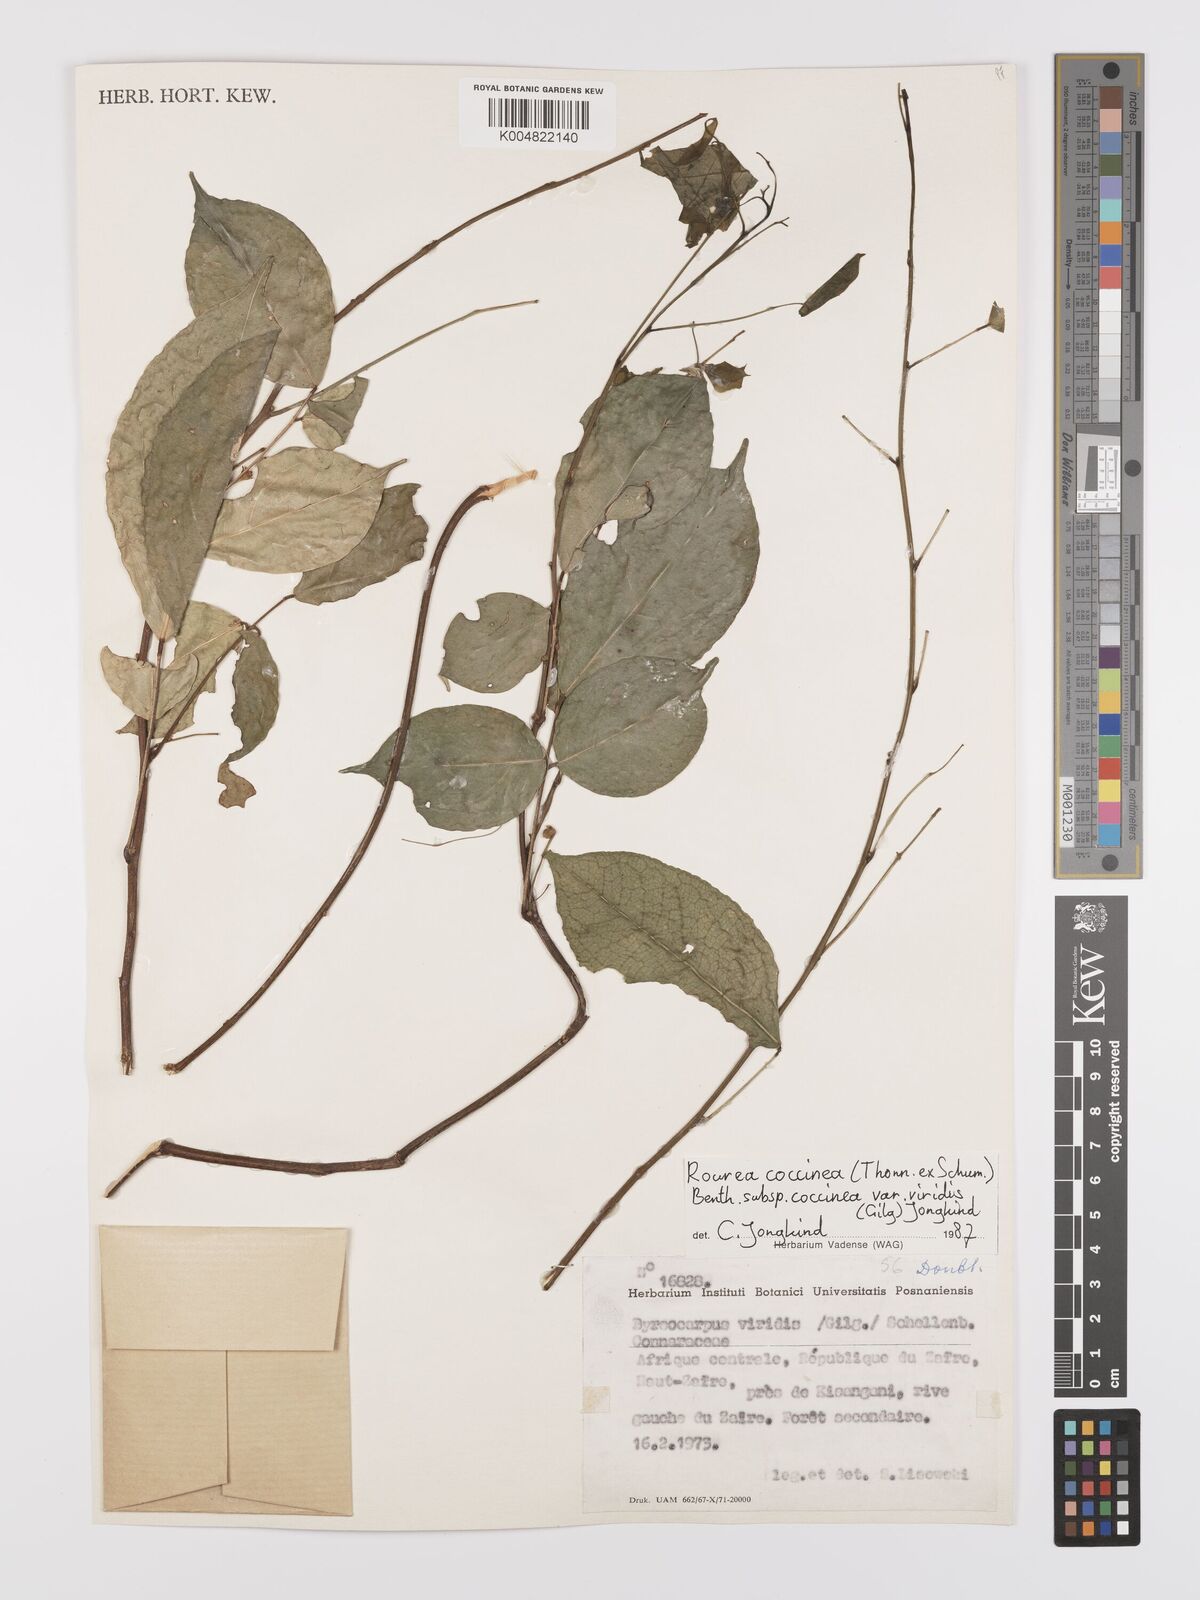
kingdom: Plantae
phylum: Tracheophyta
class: Magnoliopsida
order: Oxalidales
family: Connaraceae
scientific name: Connaraceae
